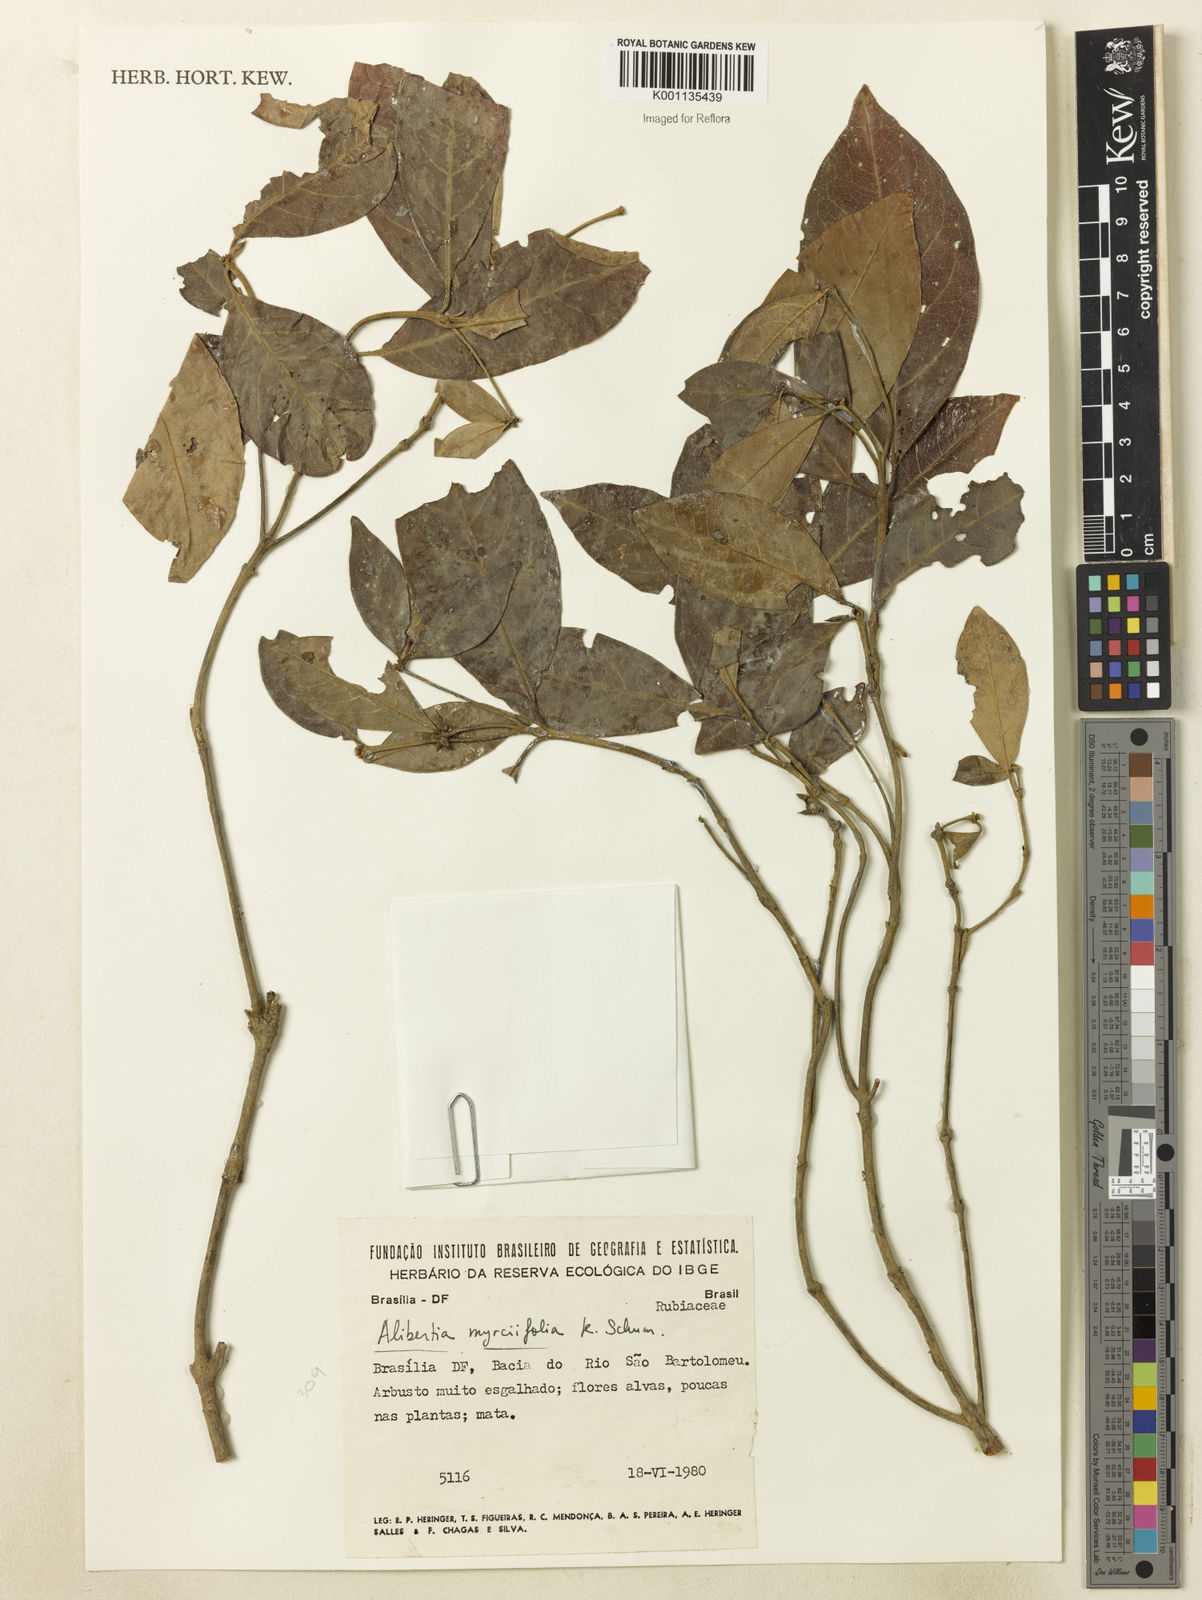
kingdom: Plantae
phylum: Tracheophyta
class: Magnoliopsida
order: Gentianales
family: Rubiaceae
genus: Cordiera
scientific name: Cordiera myrciifolia
